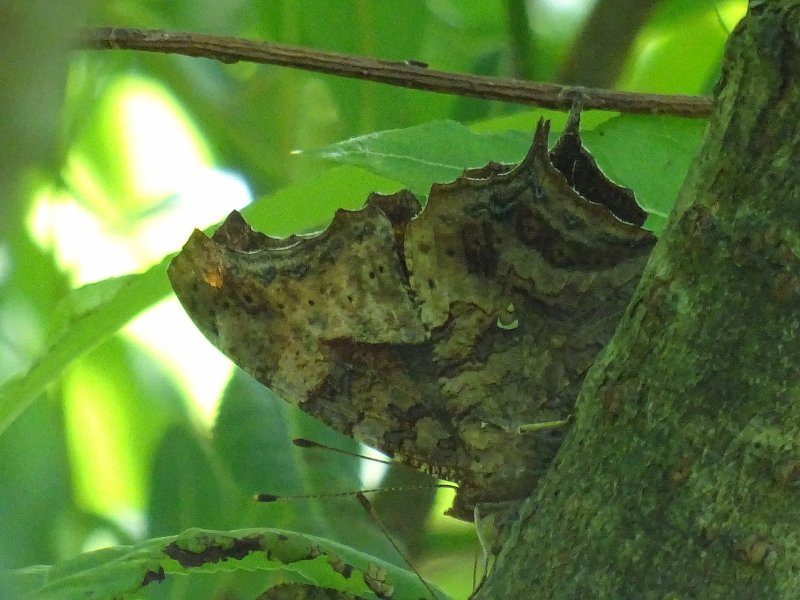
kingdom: Animalia
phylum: Arthropoda
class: Insecta
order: Lepidoptera
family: Nymphalidae
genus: Polygonia
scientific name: Polygonia interrogationis
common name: Question Mark
